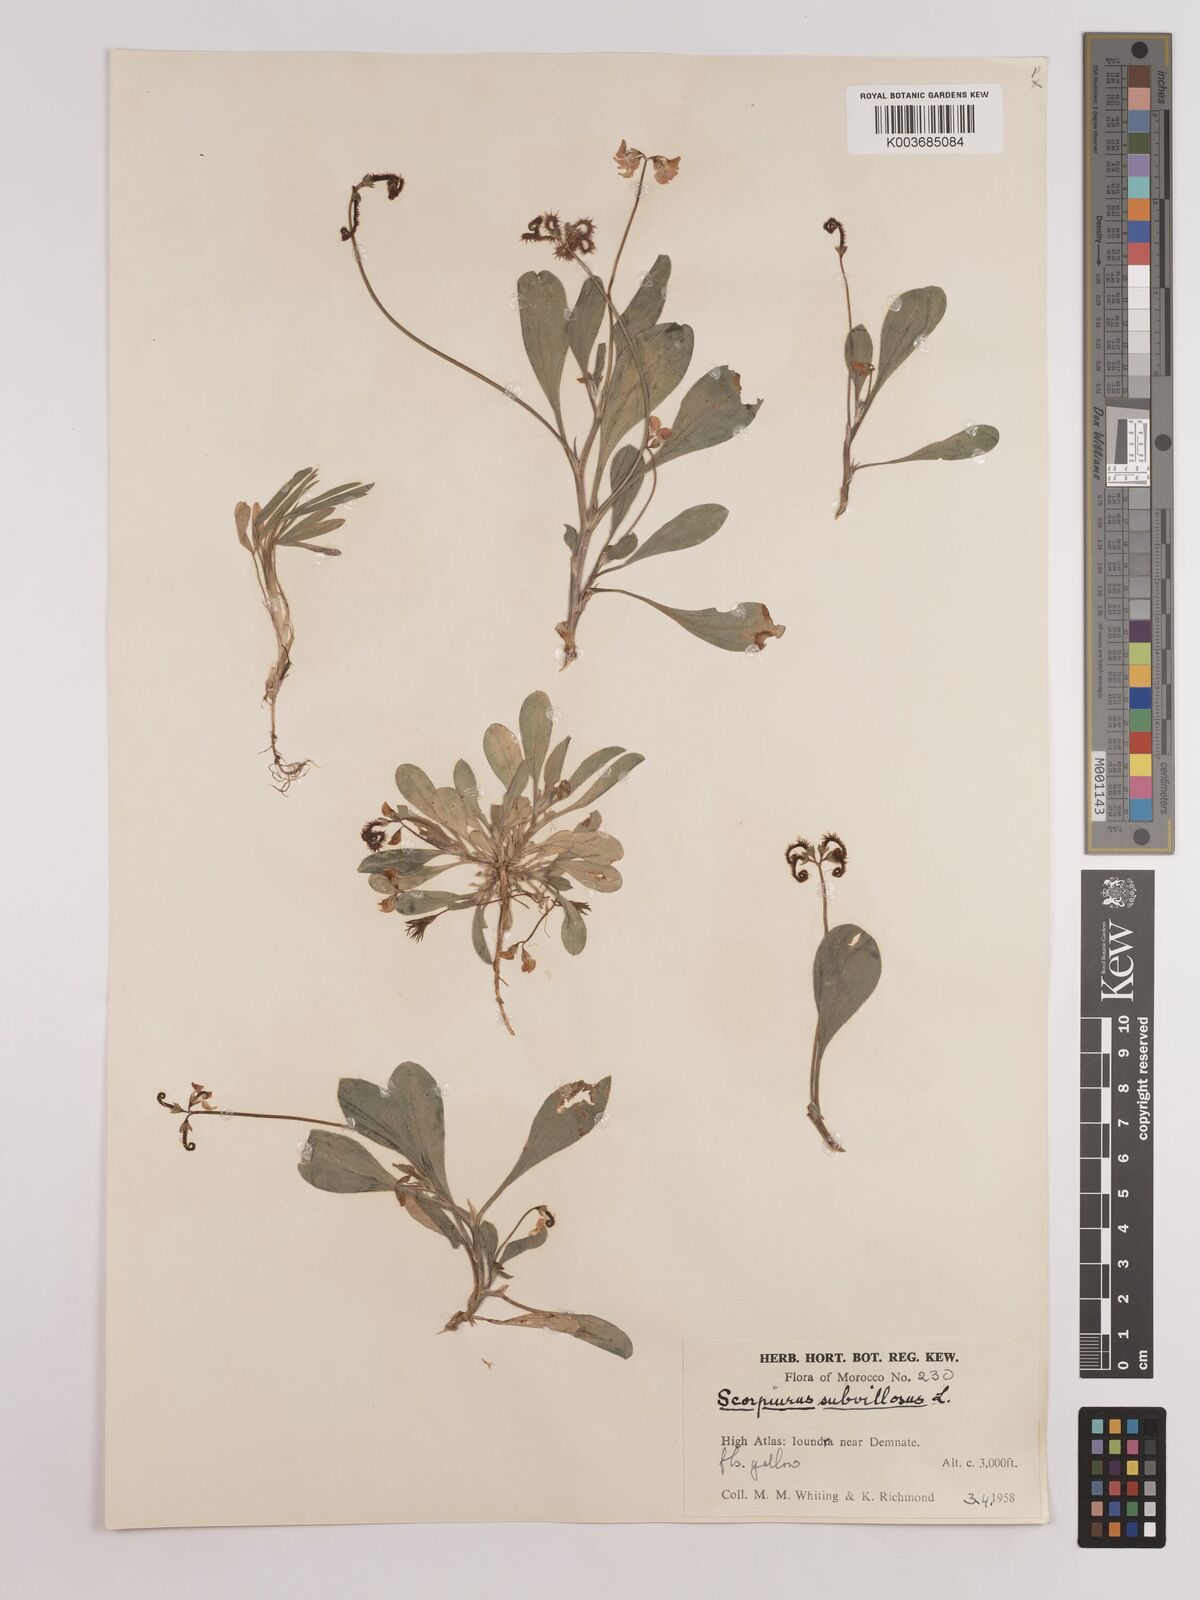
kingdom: Plantae
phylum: Tracheophyta
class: Magnoliopsida
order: Fabales
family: Fabaceae
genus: Scorpiurus
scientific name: Scorpiurus muricatus
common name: Caterpillar-plant
